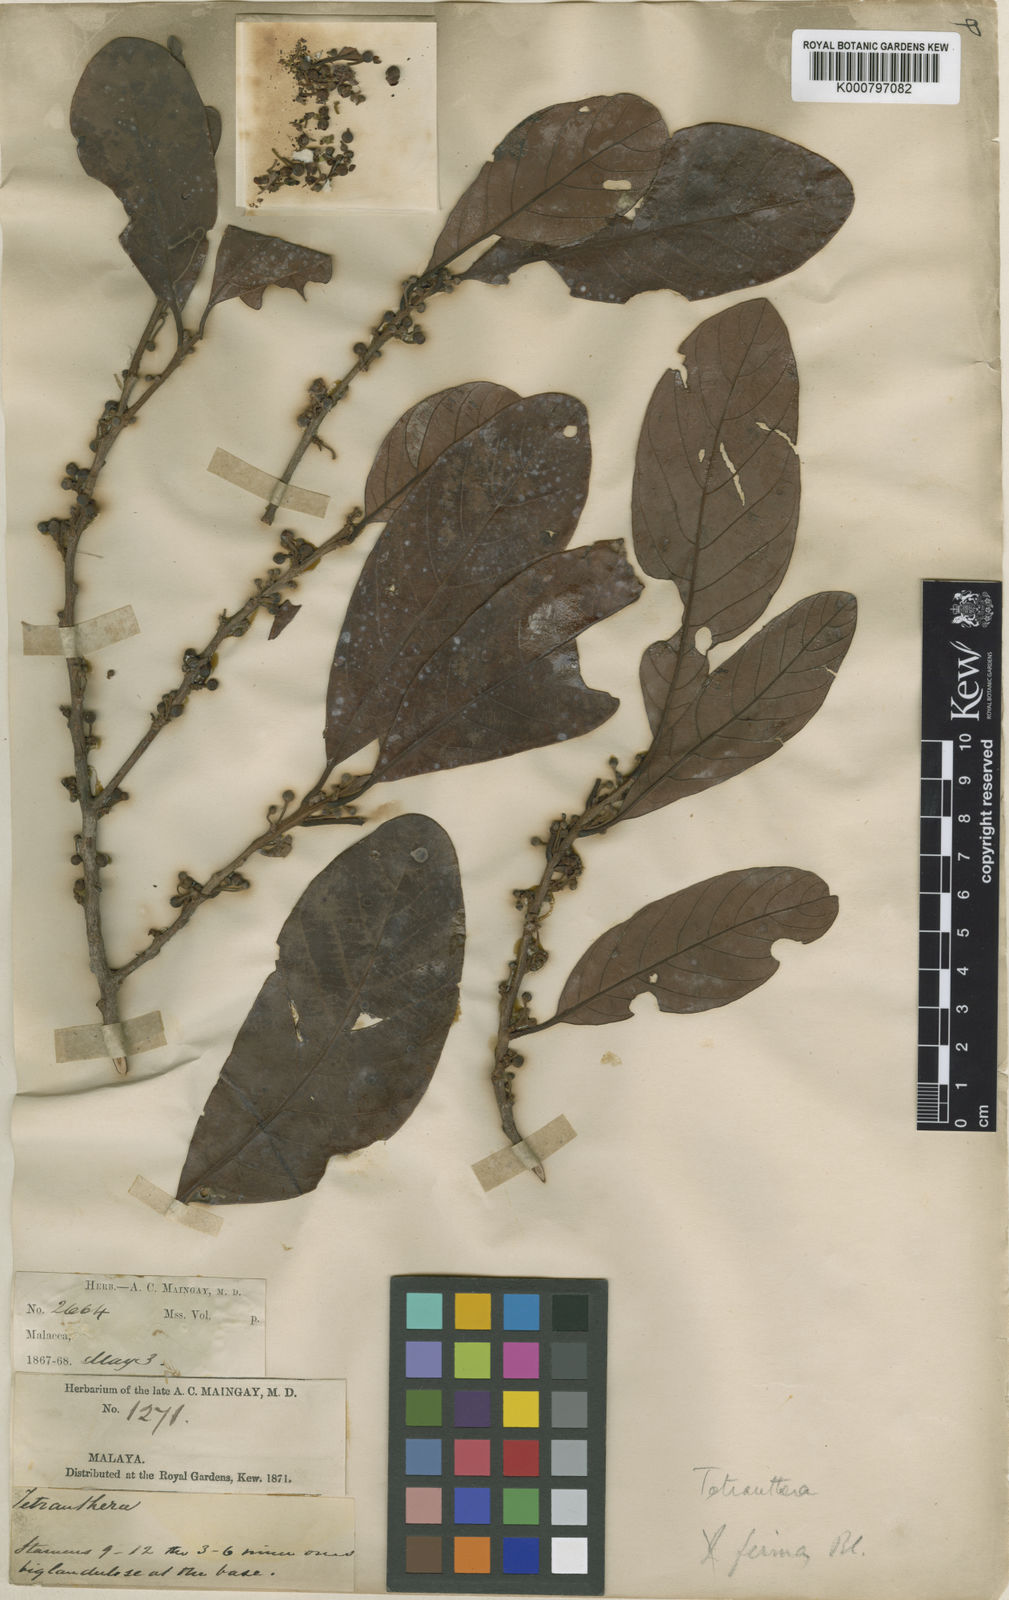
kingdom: Plantae
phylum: Tracheophyta
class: Magnoliopsida
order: Laurales
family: Lauraceae
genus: Litsea
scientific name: Litsea firma
